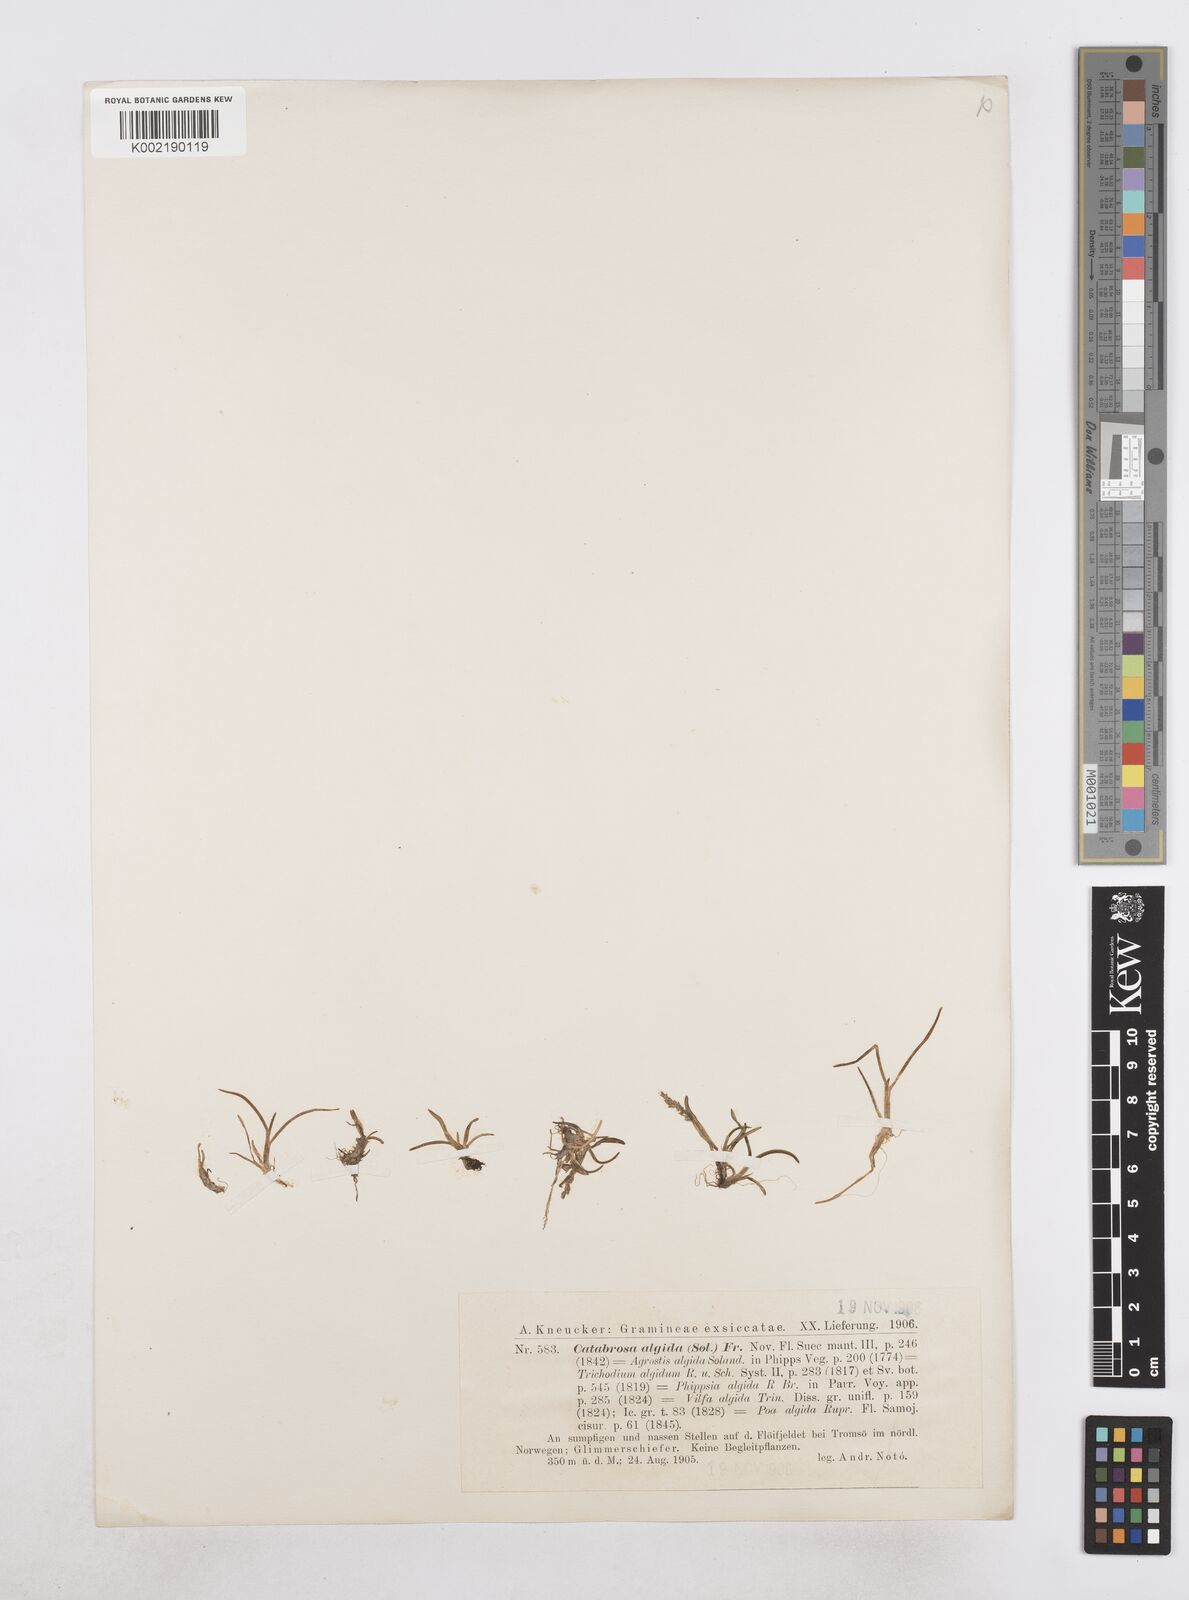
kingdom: Plantae
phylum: Tracheophyta
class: Liliopsida
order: Poales
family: Poaceae
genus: Phippsia
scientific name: Phippsia algida
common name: Ice grass
